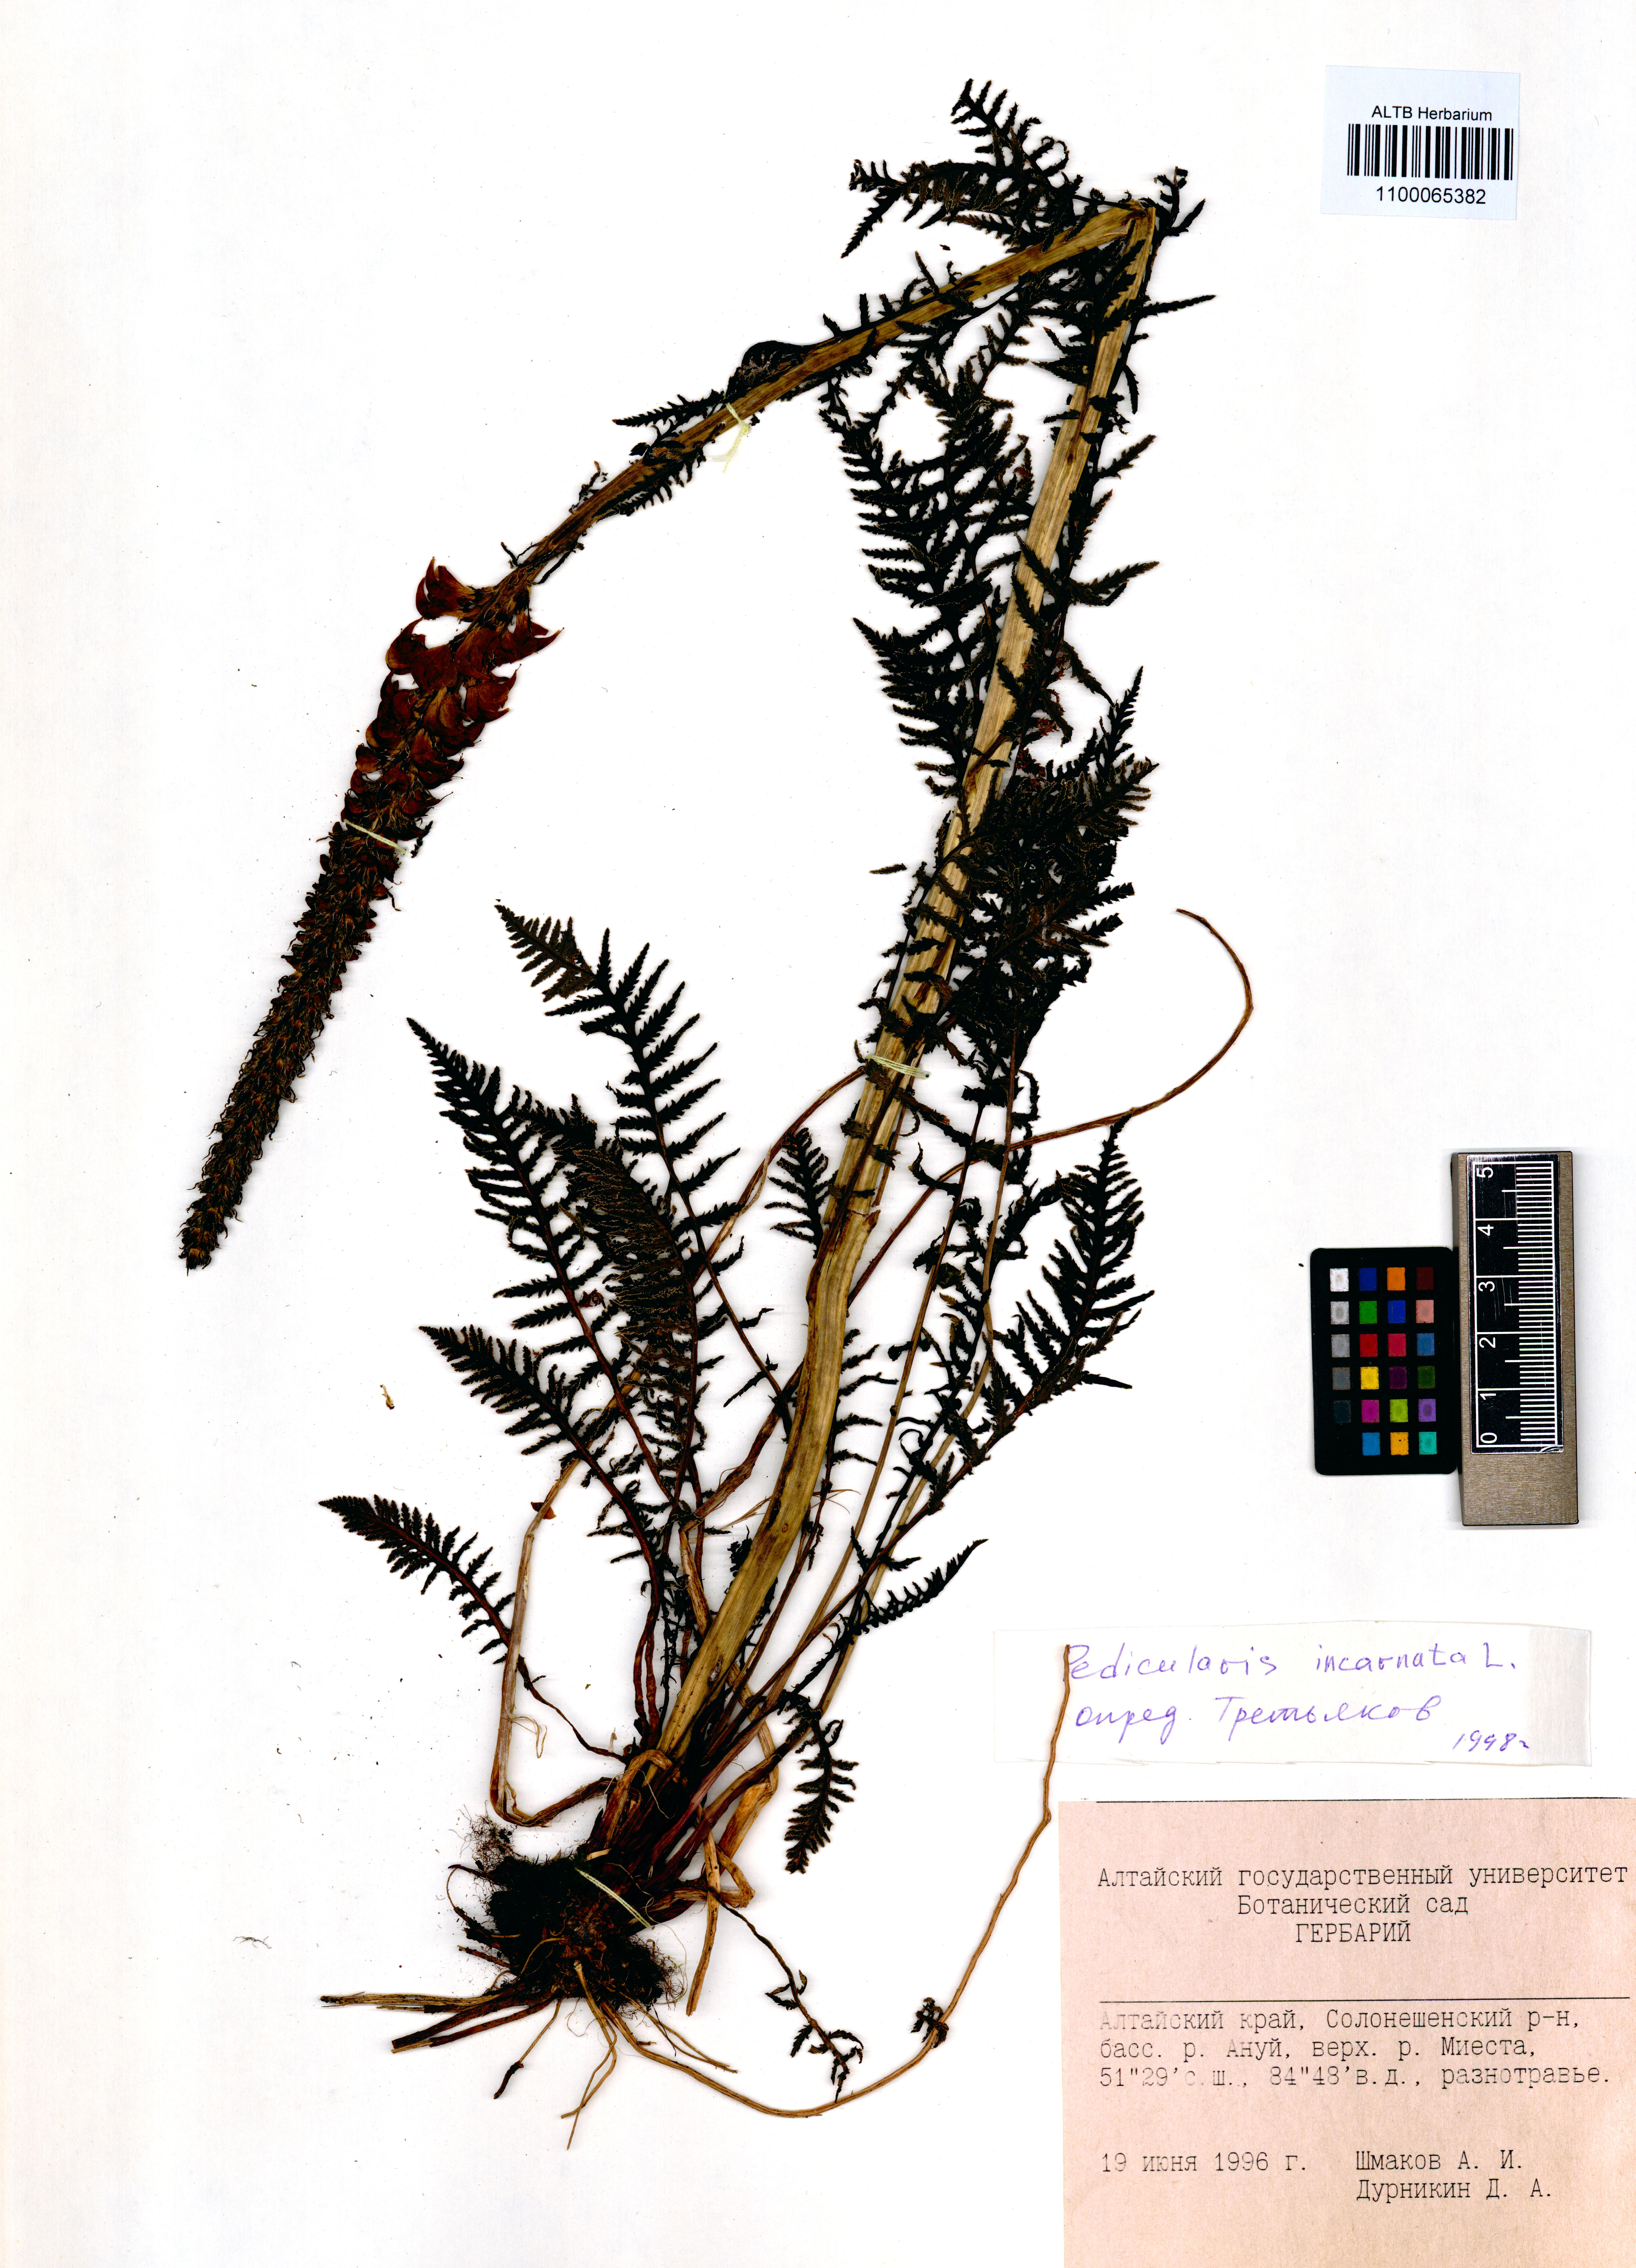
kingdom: Plantae
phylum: Tracheophyta
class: Magnoliopsida
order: Lamiales
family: Orobanchaceae
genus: Pedicularis
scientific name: Pedicularis incarnata
